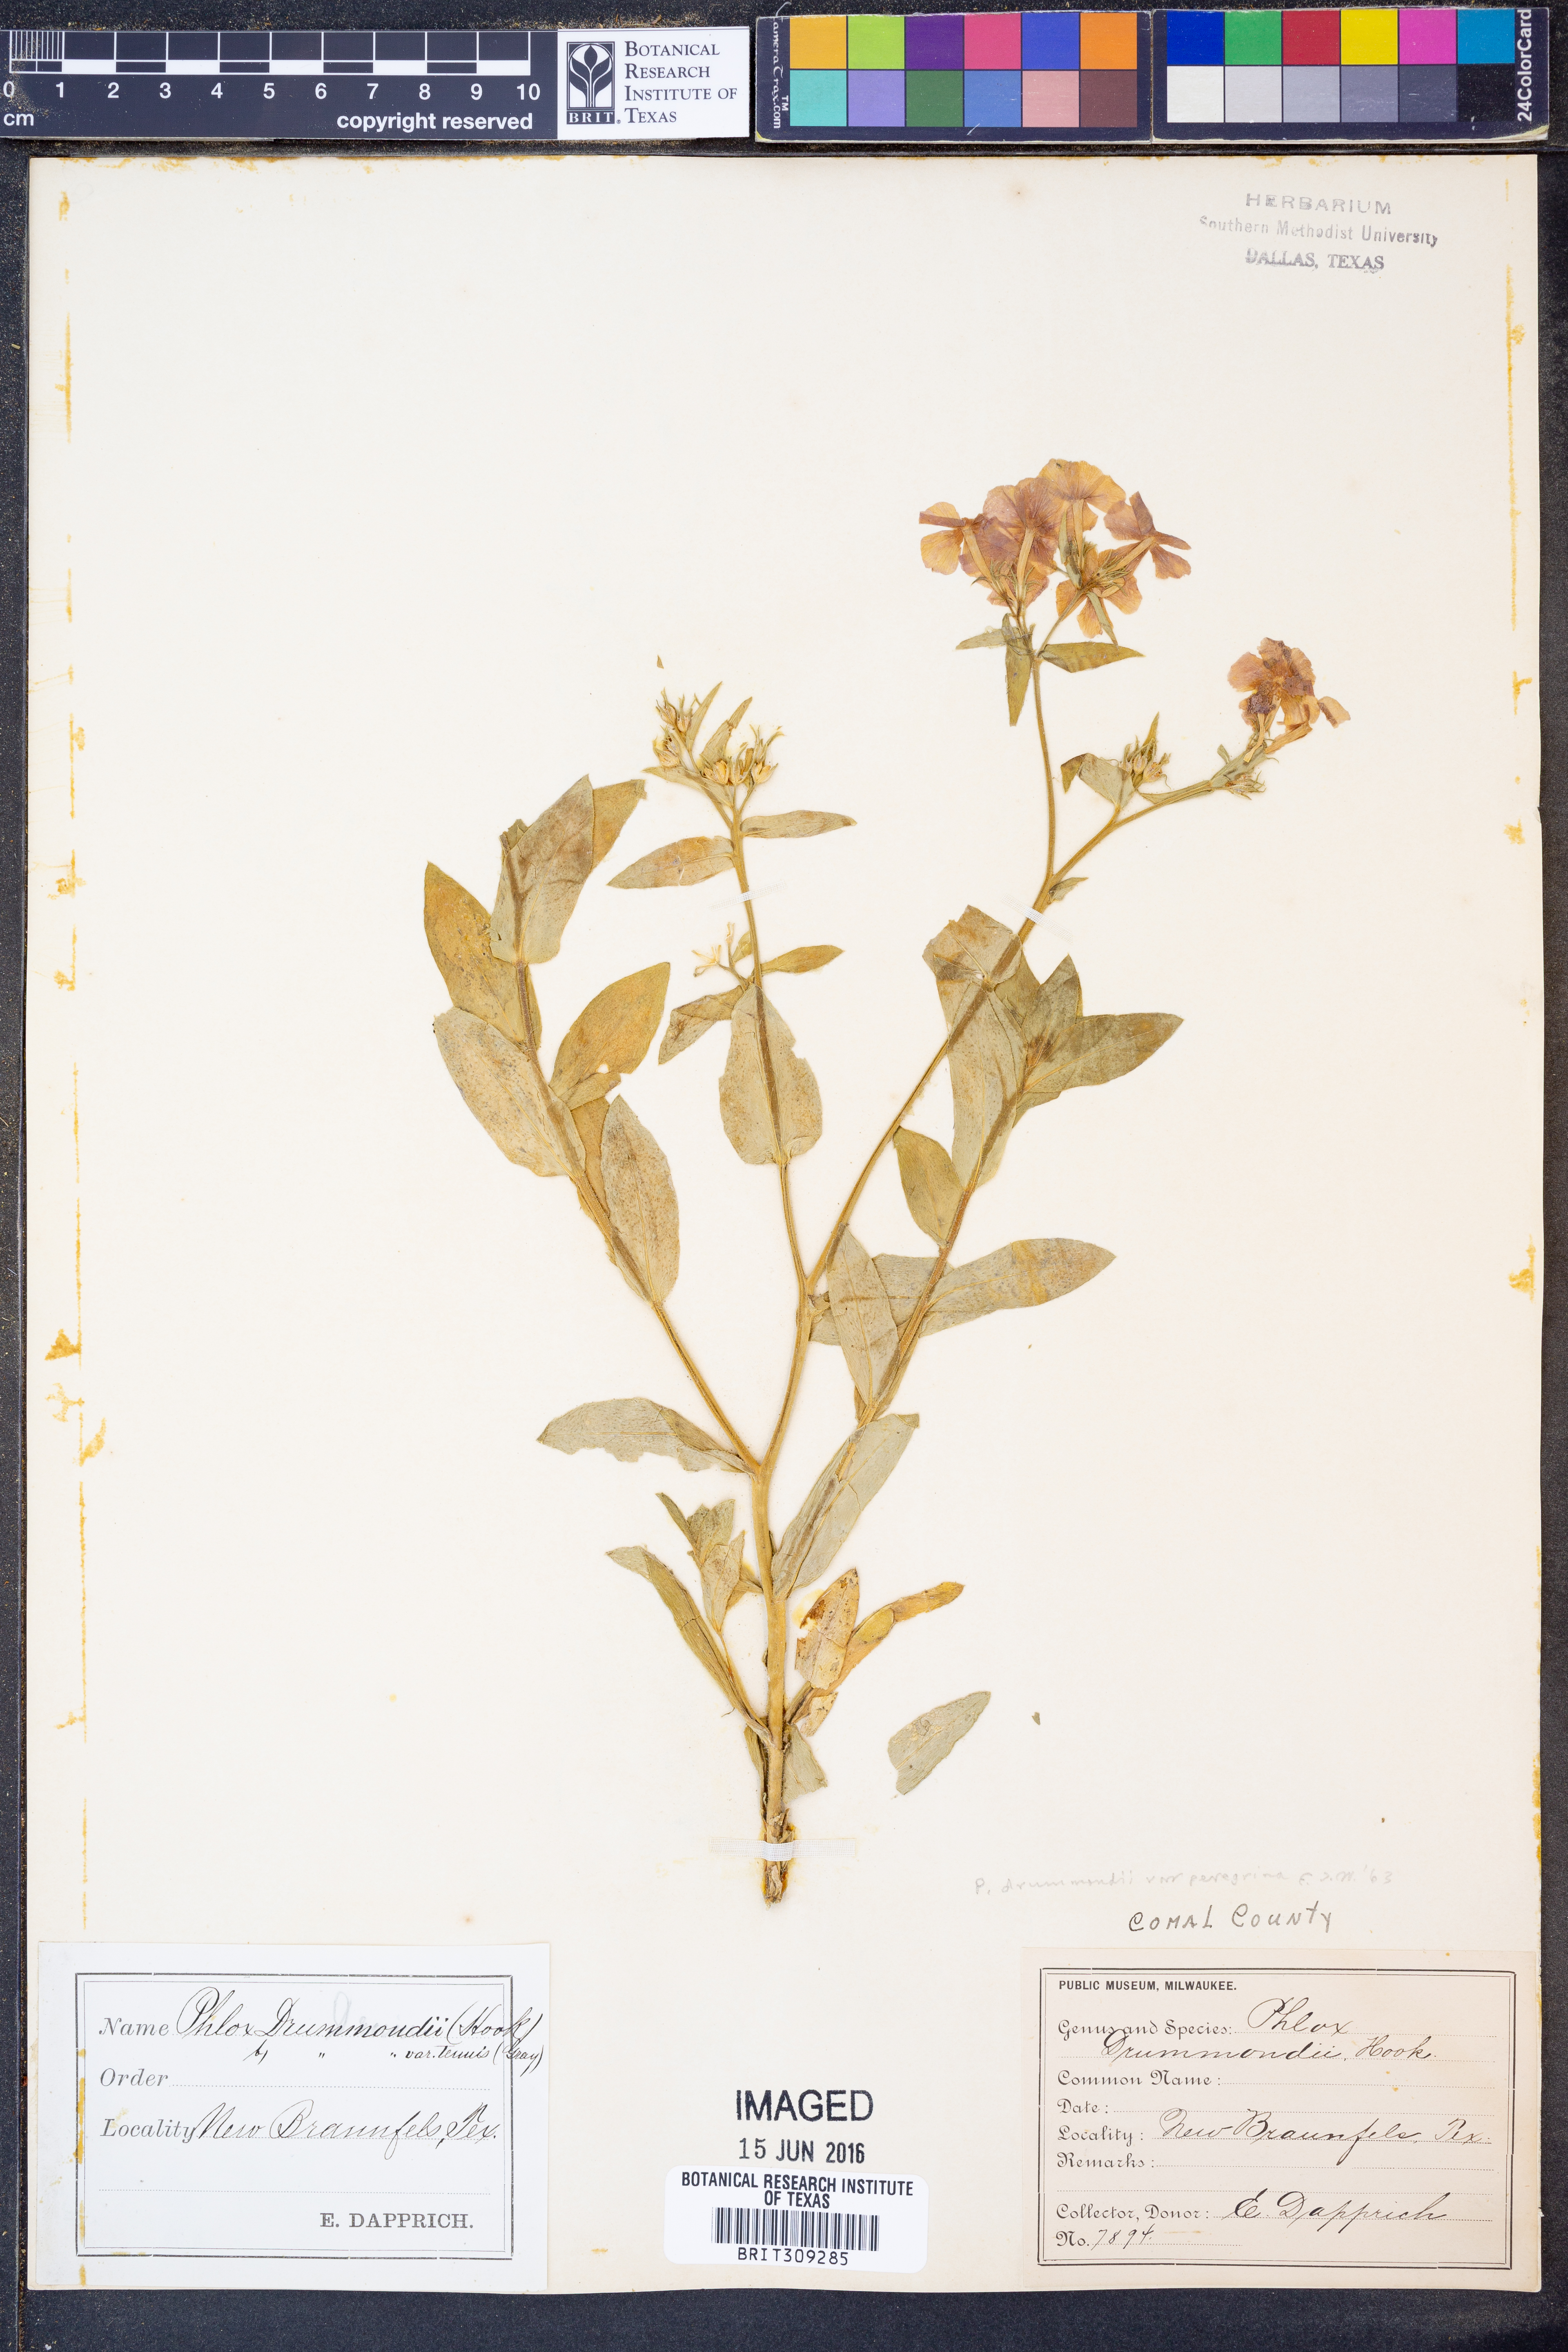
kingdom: Plantae
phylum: Tracheophyta
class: Magnoliopsida
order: Ericales
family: Polemoniaceae
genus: Phlox
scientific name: Phlox drummondii
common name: Drummond's phlox
